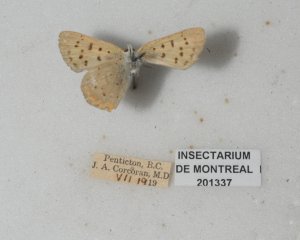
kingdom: Animalia
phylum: Arthropoda
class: Insecta
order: Lepidoptera
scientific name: Lepidoptera
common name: Butterflies
